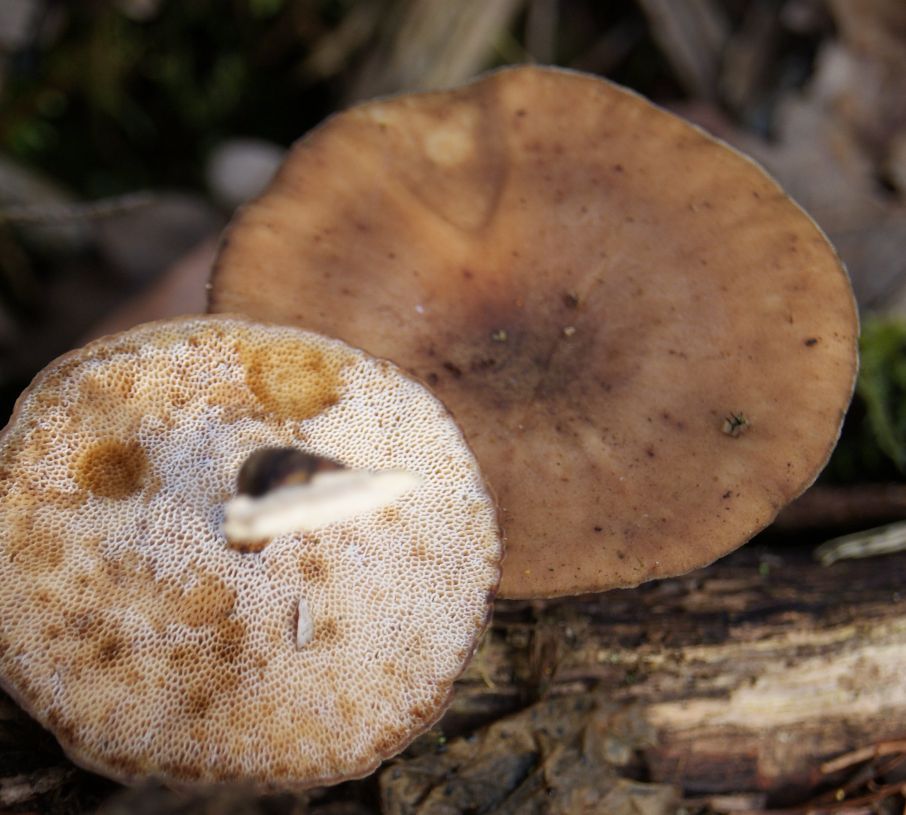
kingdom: Fungi
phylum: Basidiomycota
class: Agaricomycetes
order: Polyporales
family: Polyporaceae
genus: Lentinus
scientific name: Lentinus brumalis
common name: vinter-stilkporesvamp
